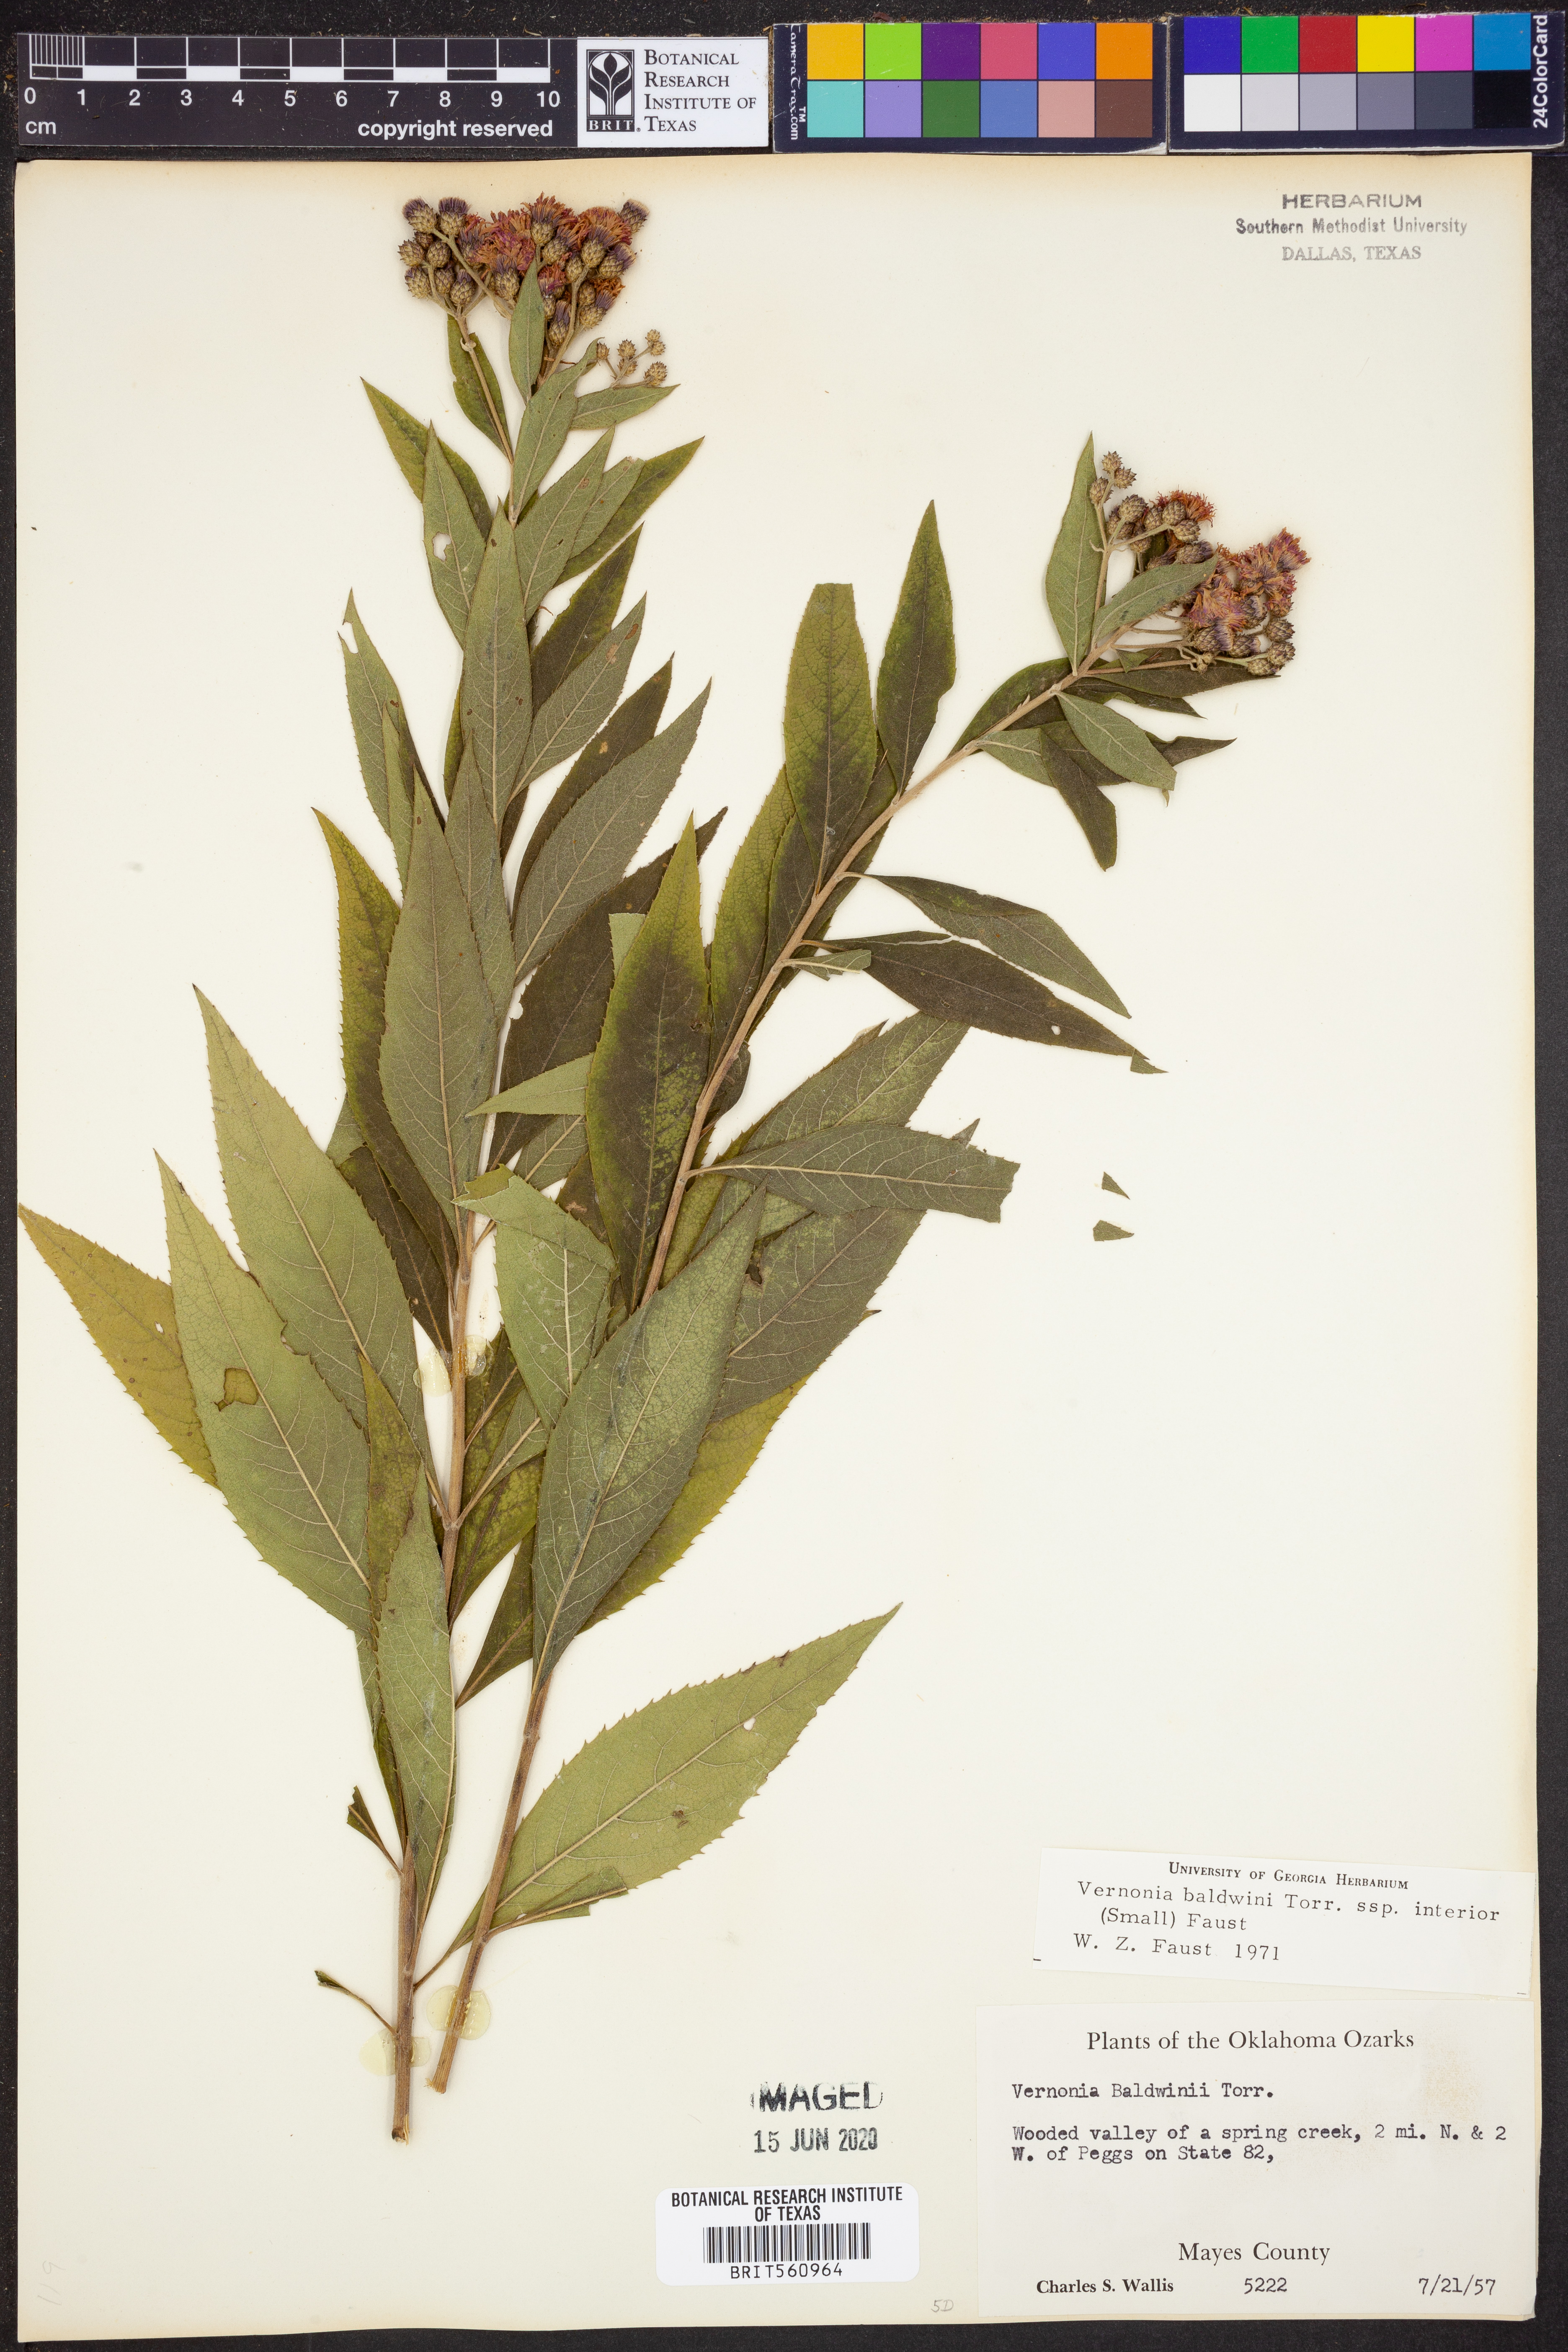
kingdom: Plantae
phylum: Tracheophyta
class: Magnoliopsida
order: Asterales
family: Asteraceae
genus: Vernonia
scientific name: Vernonia baldwinii
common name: Western ironweed
